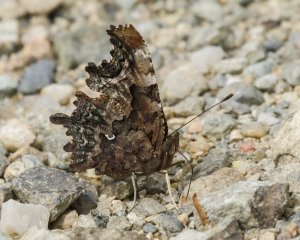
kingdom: Animalia
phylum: Arthropoda
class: Insecta
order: Lepidoptera
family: Nymphalidae
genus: Polygonia
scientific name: Polygonia faunus
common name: Green Comma
